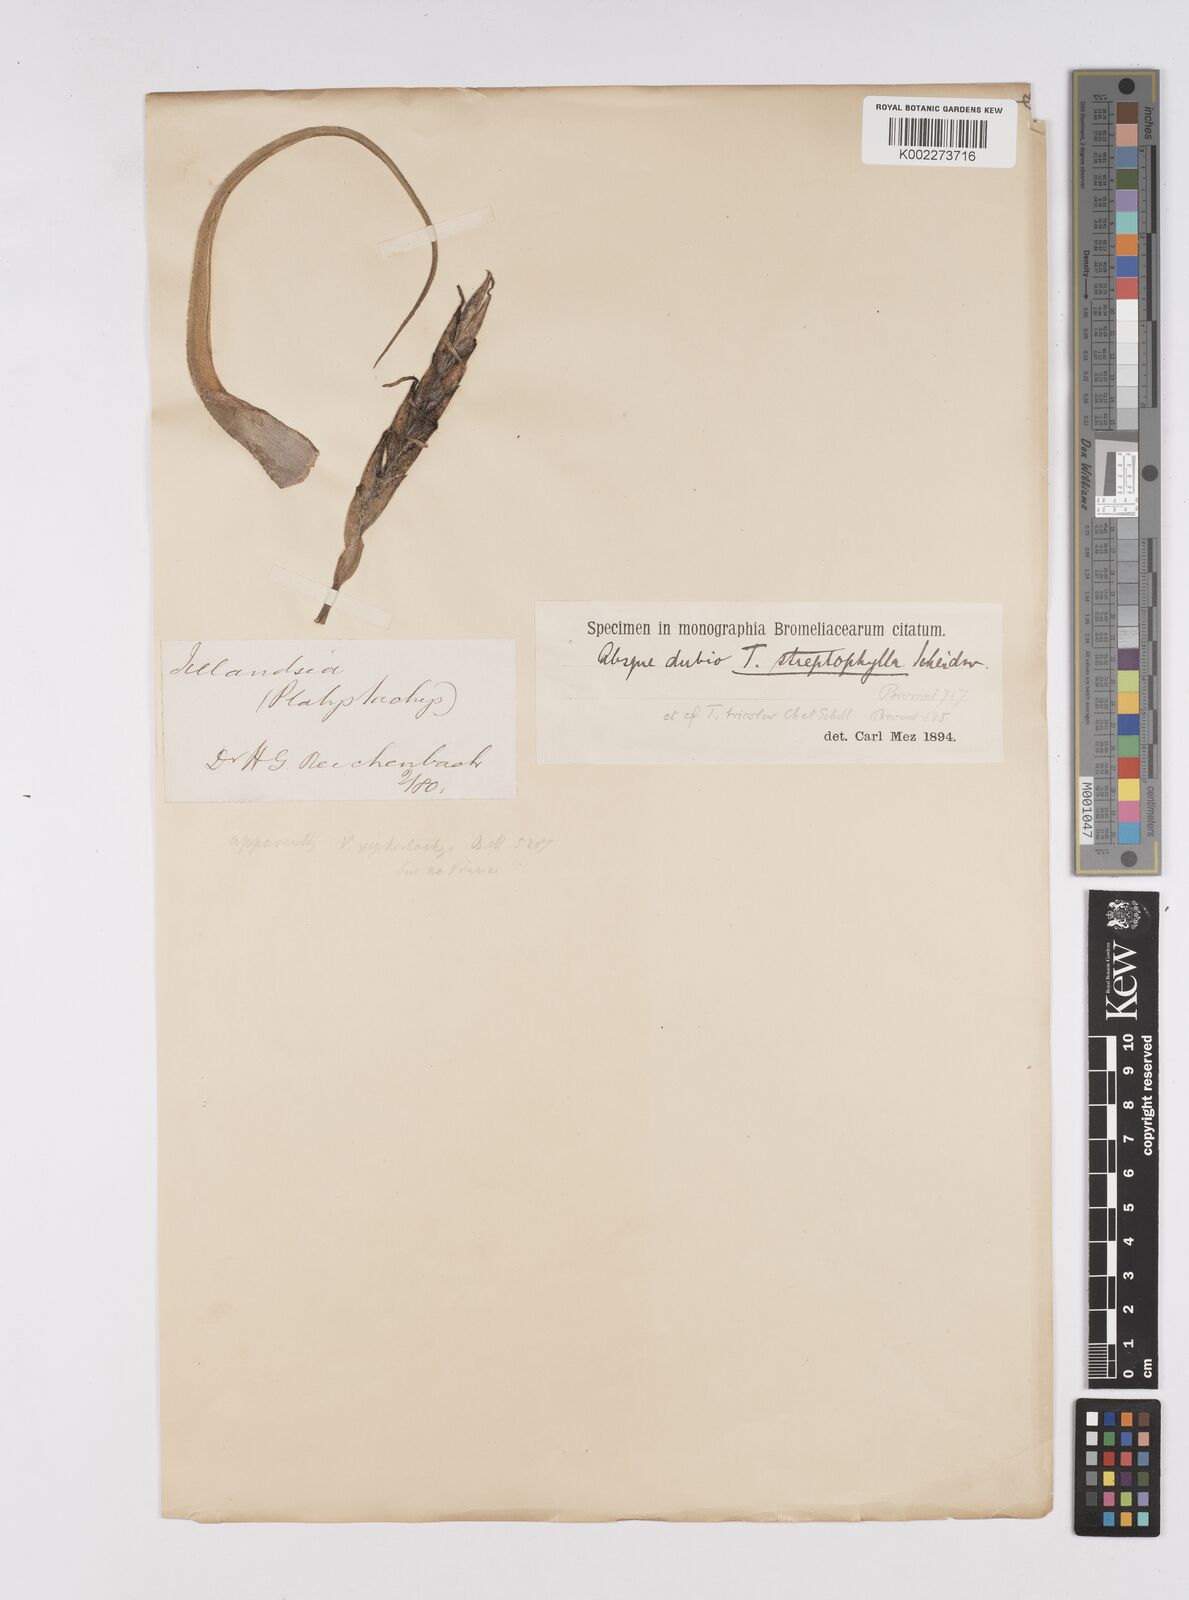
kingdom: Plantae
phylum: Tracheophyta
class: Liliopsida
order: Poales
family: Bromeliaceae
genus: Tillandsia
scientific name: Tillandsia streptophylla
